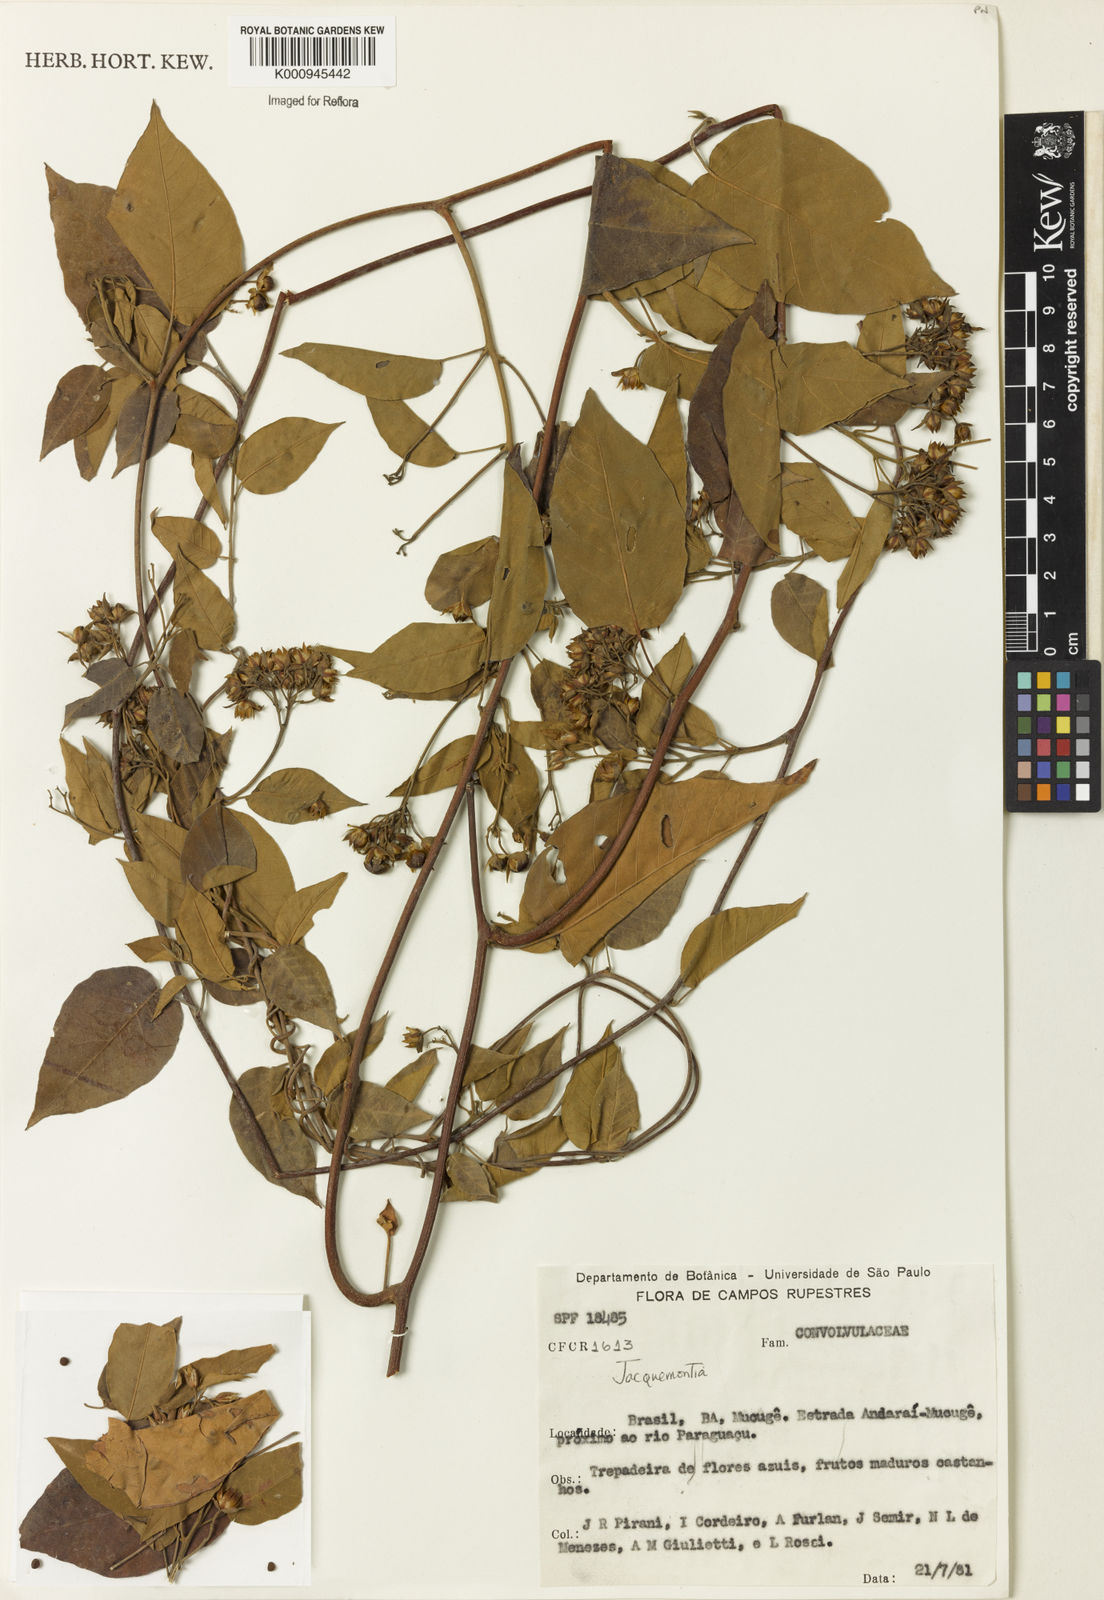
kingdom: Plantae
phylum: Tracheophyta
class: Magnoliopsida
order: Solanales
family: Convolvulaceae
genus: Jacquemontia
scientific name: Jacquemontia
